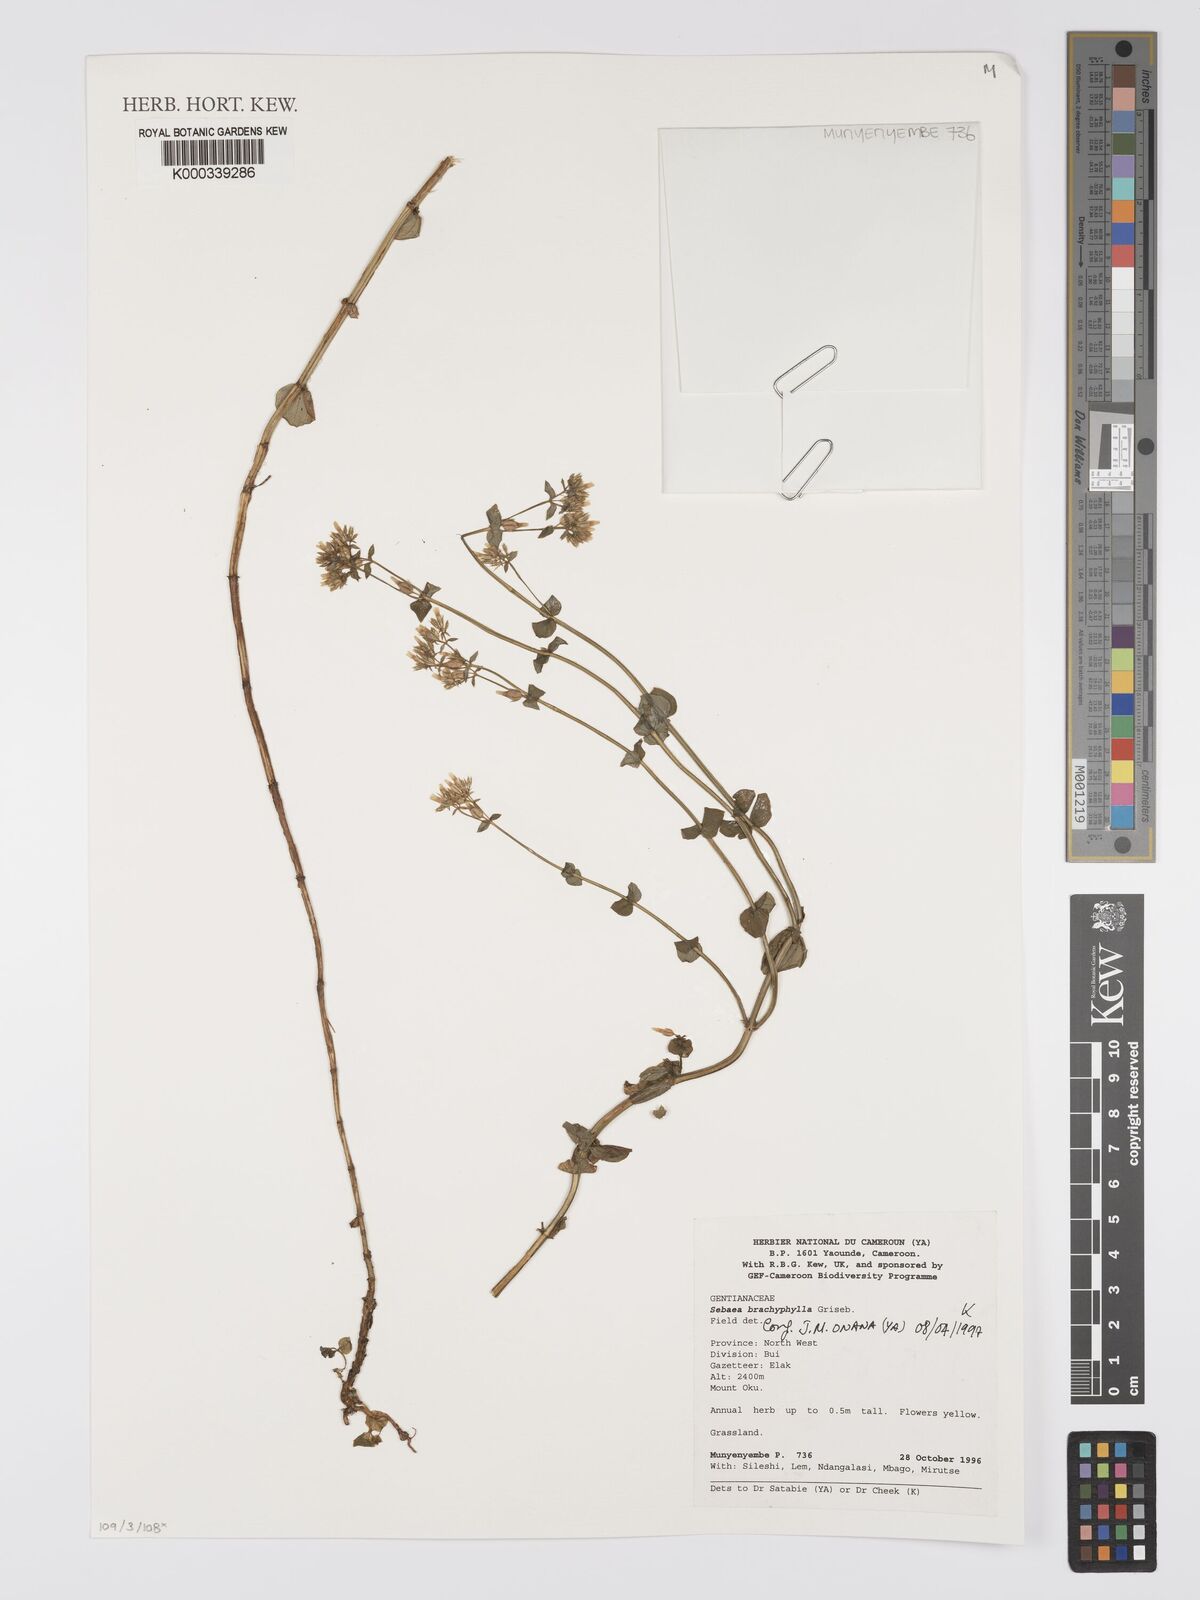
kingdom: Plantae
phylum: Tracheophyta
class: Magnoliopsida
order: Gentianales
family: Gentianaceae
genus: Sebaea
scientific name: Sebaea brachyphylla
